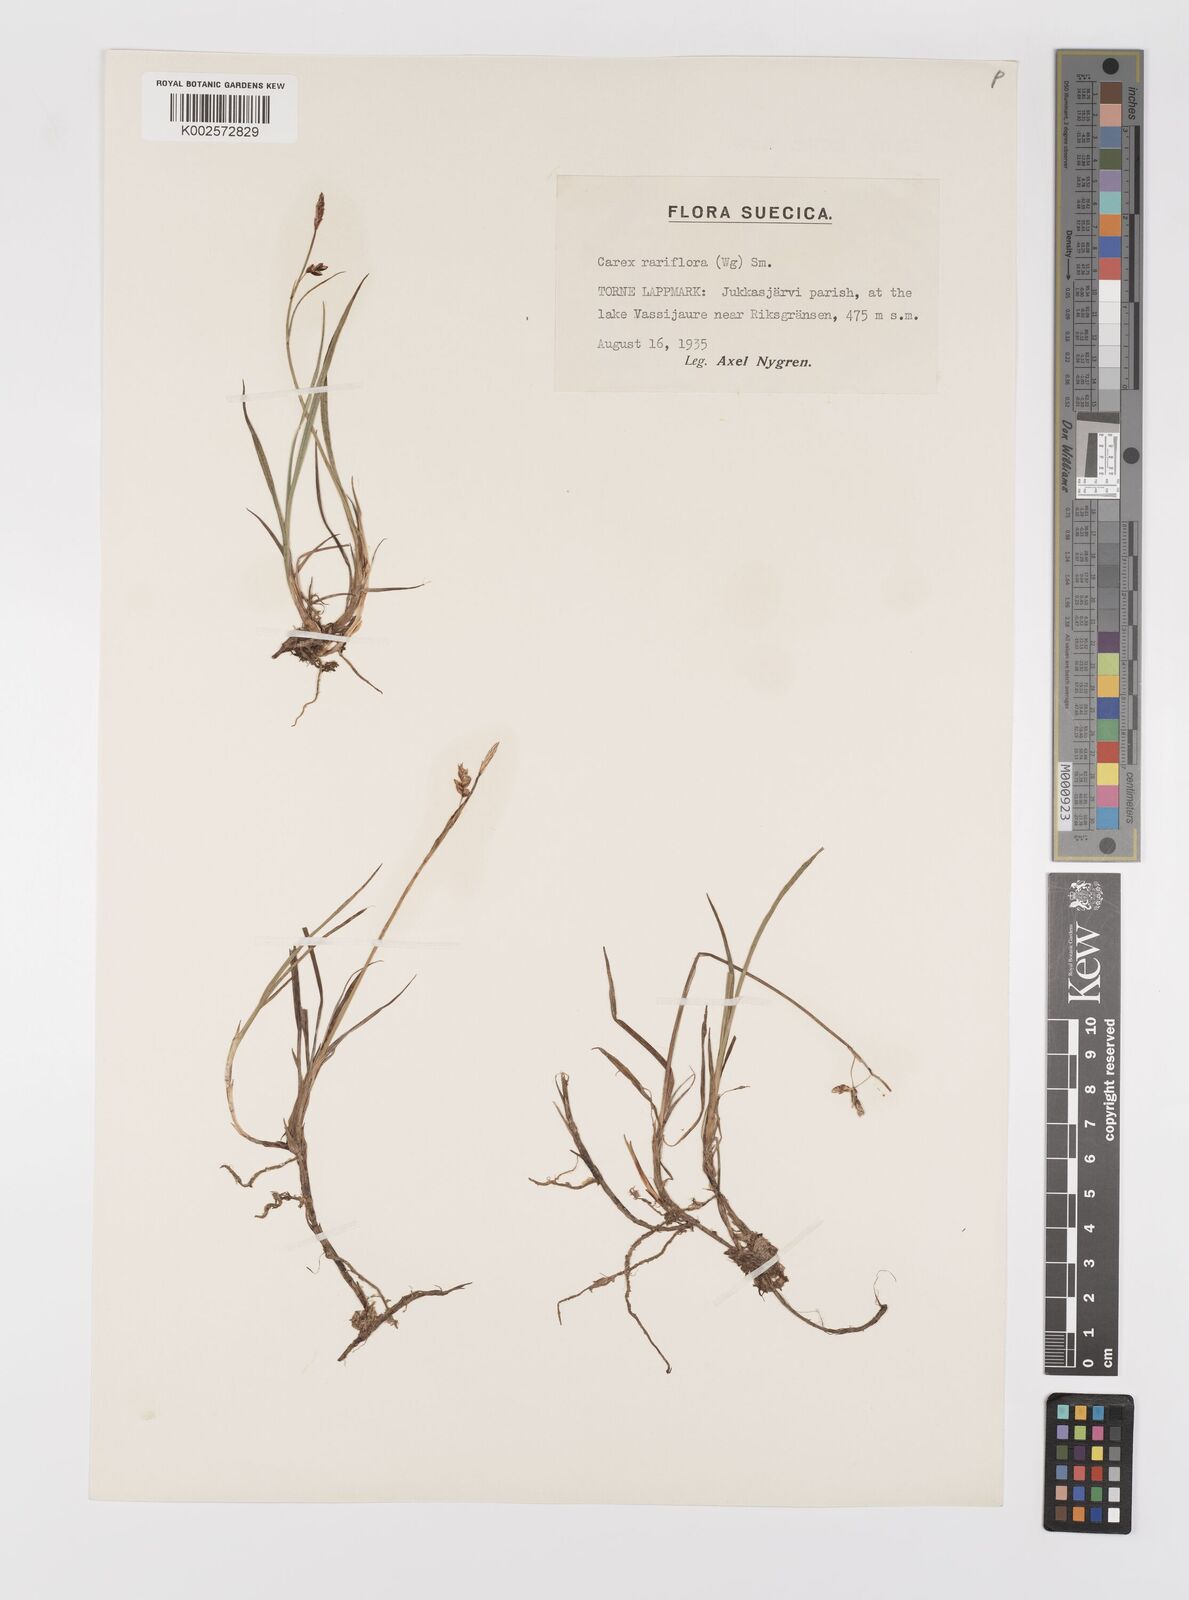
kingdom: Plantae
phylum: Tracheophyta
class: Liliopsida
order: Poales
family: Cyperaceae
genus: Carex
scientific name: Carex rariflora
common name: Loose-flowered alpine sedge
